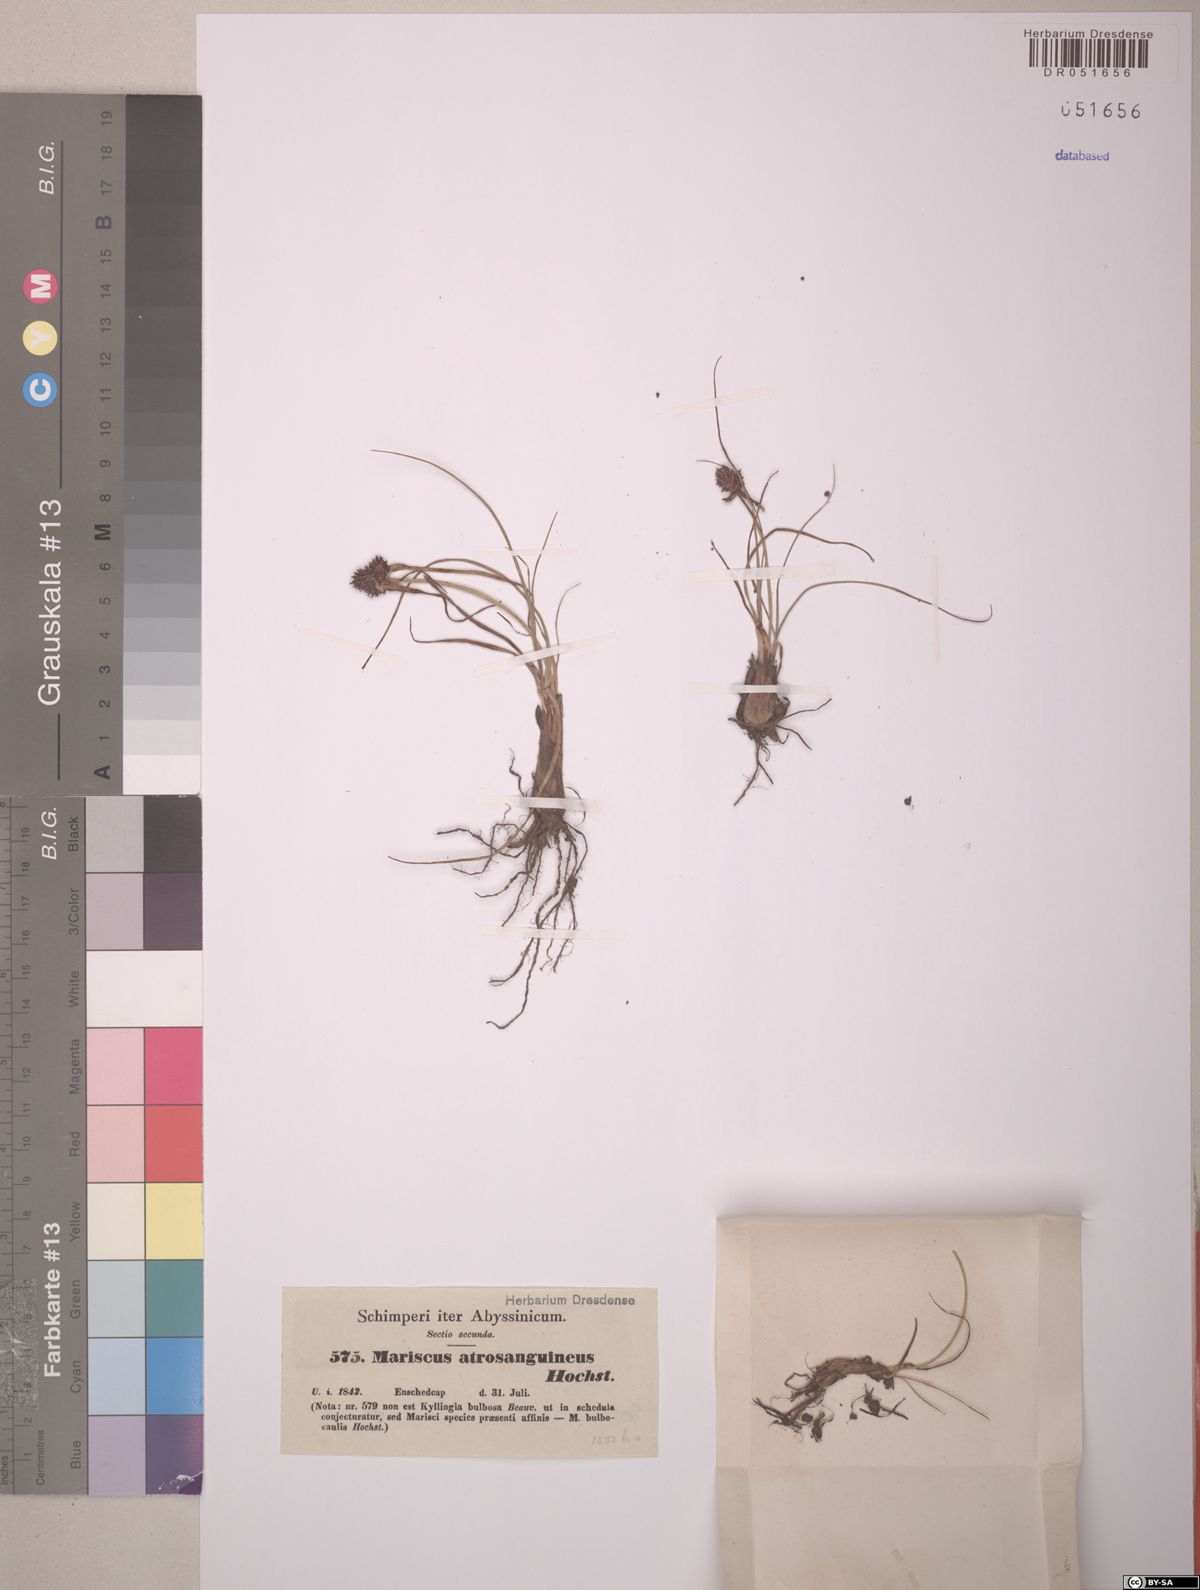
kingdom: Plantae
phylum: Tracheophyta
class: Liliopsida
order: Poales
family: Cyperaceae
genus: Cyperus
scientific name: Cyperus plateilema
